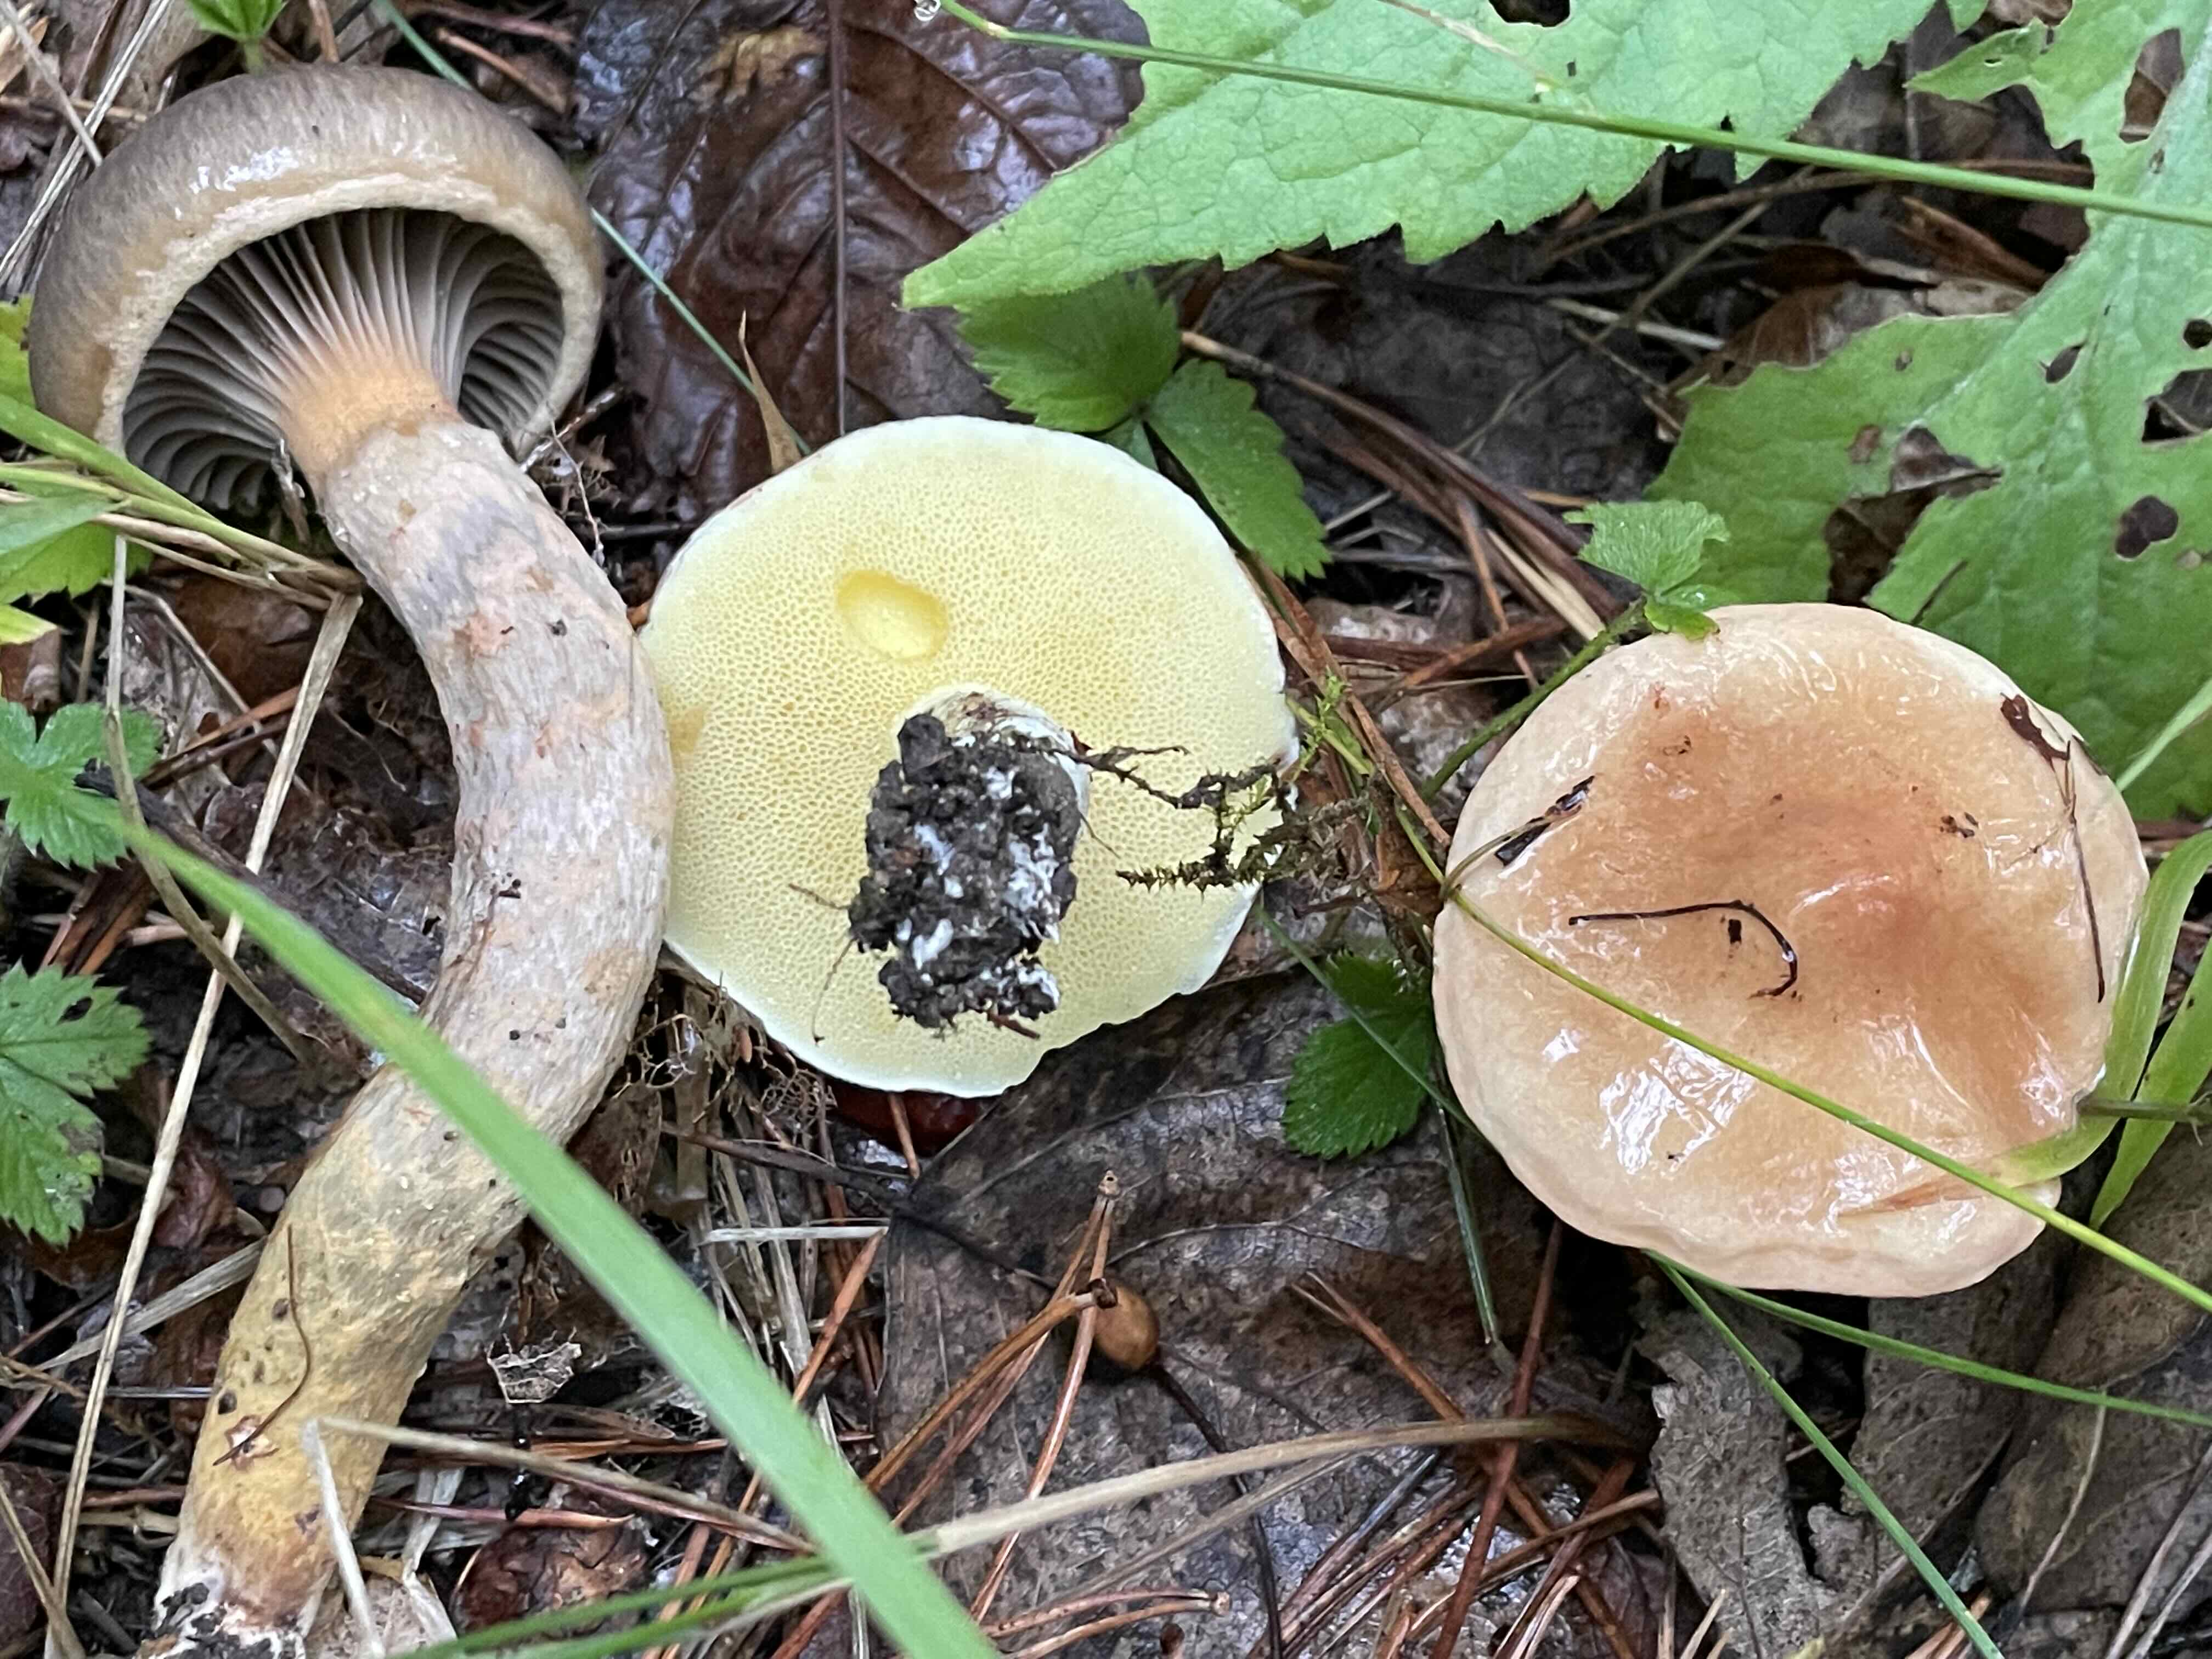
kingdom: Fungi
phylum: Basidiomycota
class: Agaricomycetes
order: Boletales
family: Suillaceae
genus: Suillus
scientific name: Suillus granulatus
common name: kornet slimrørhat
